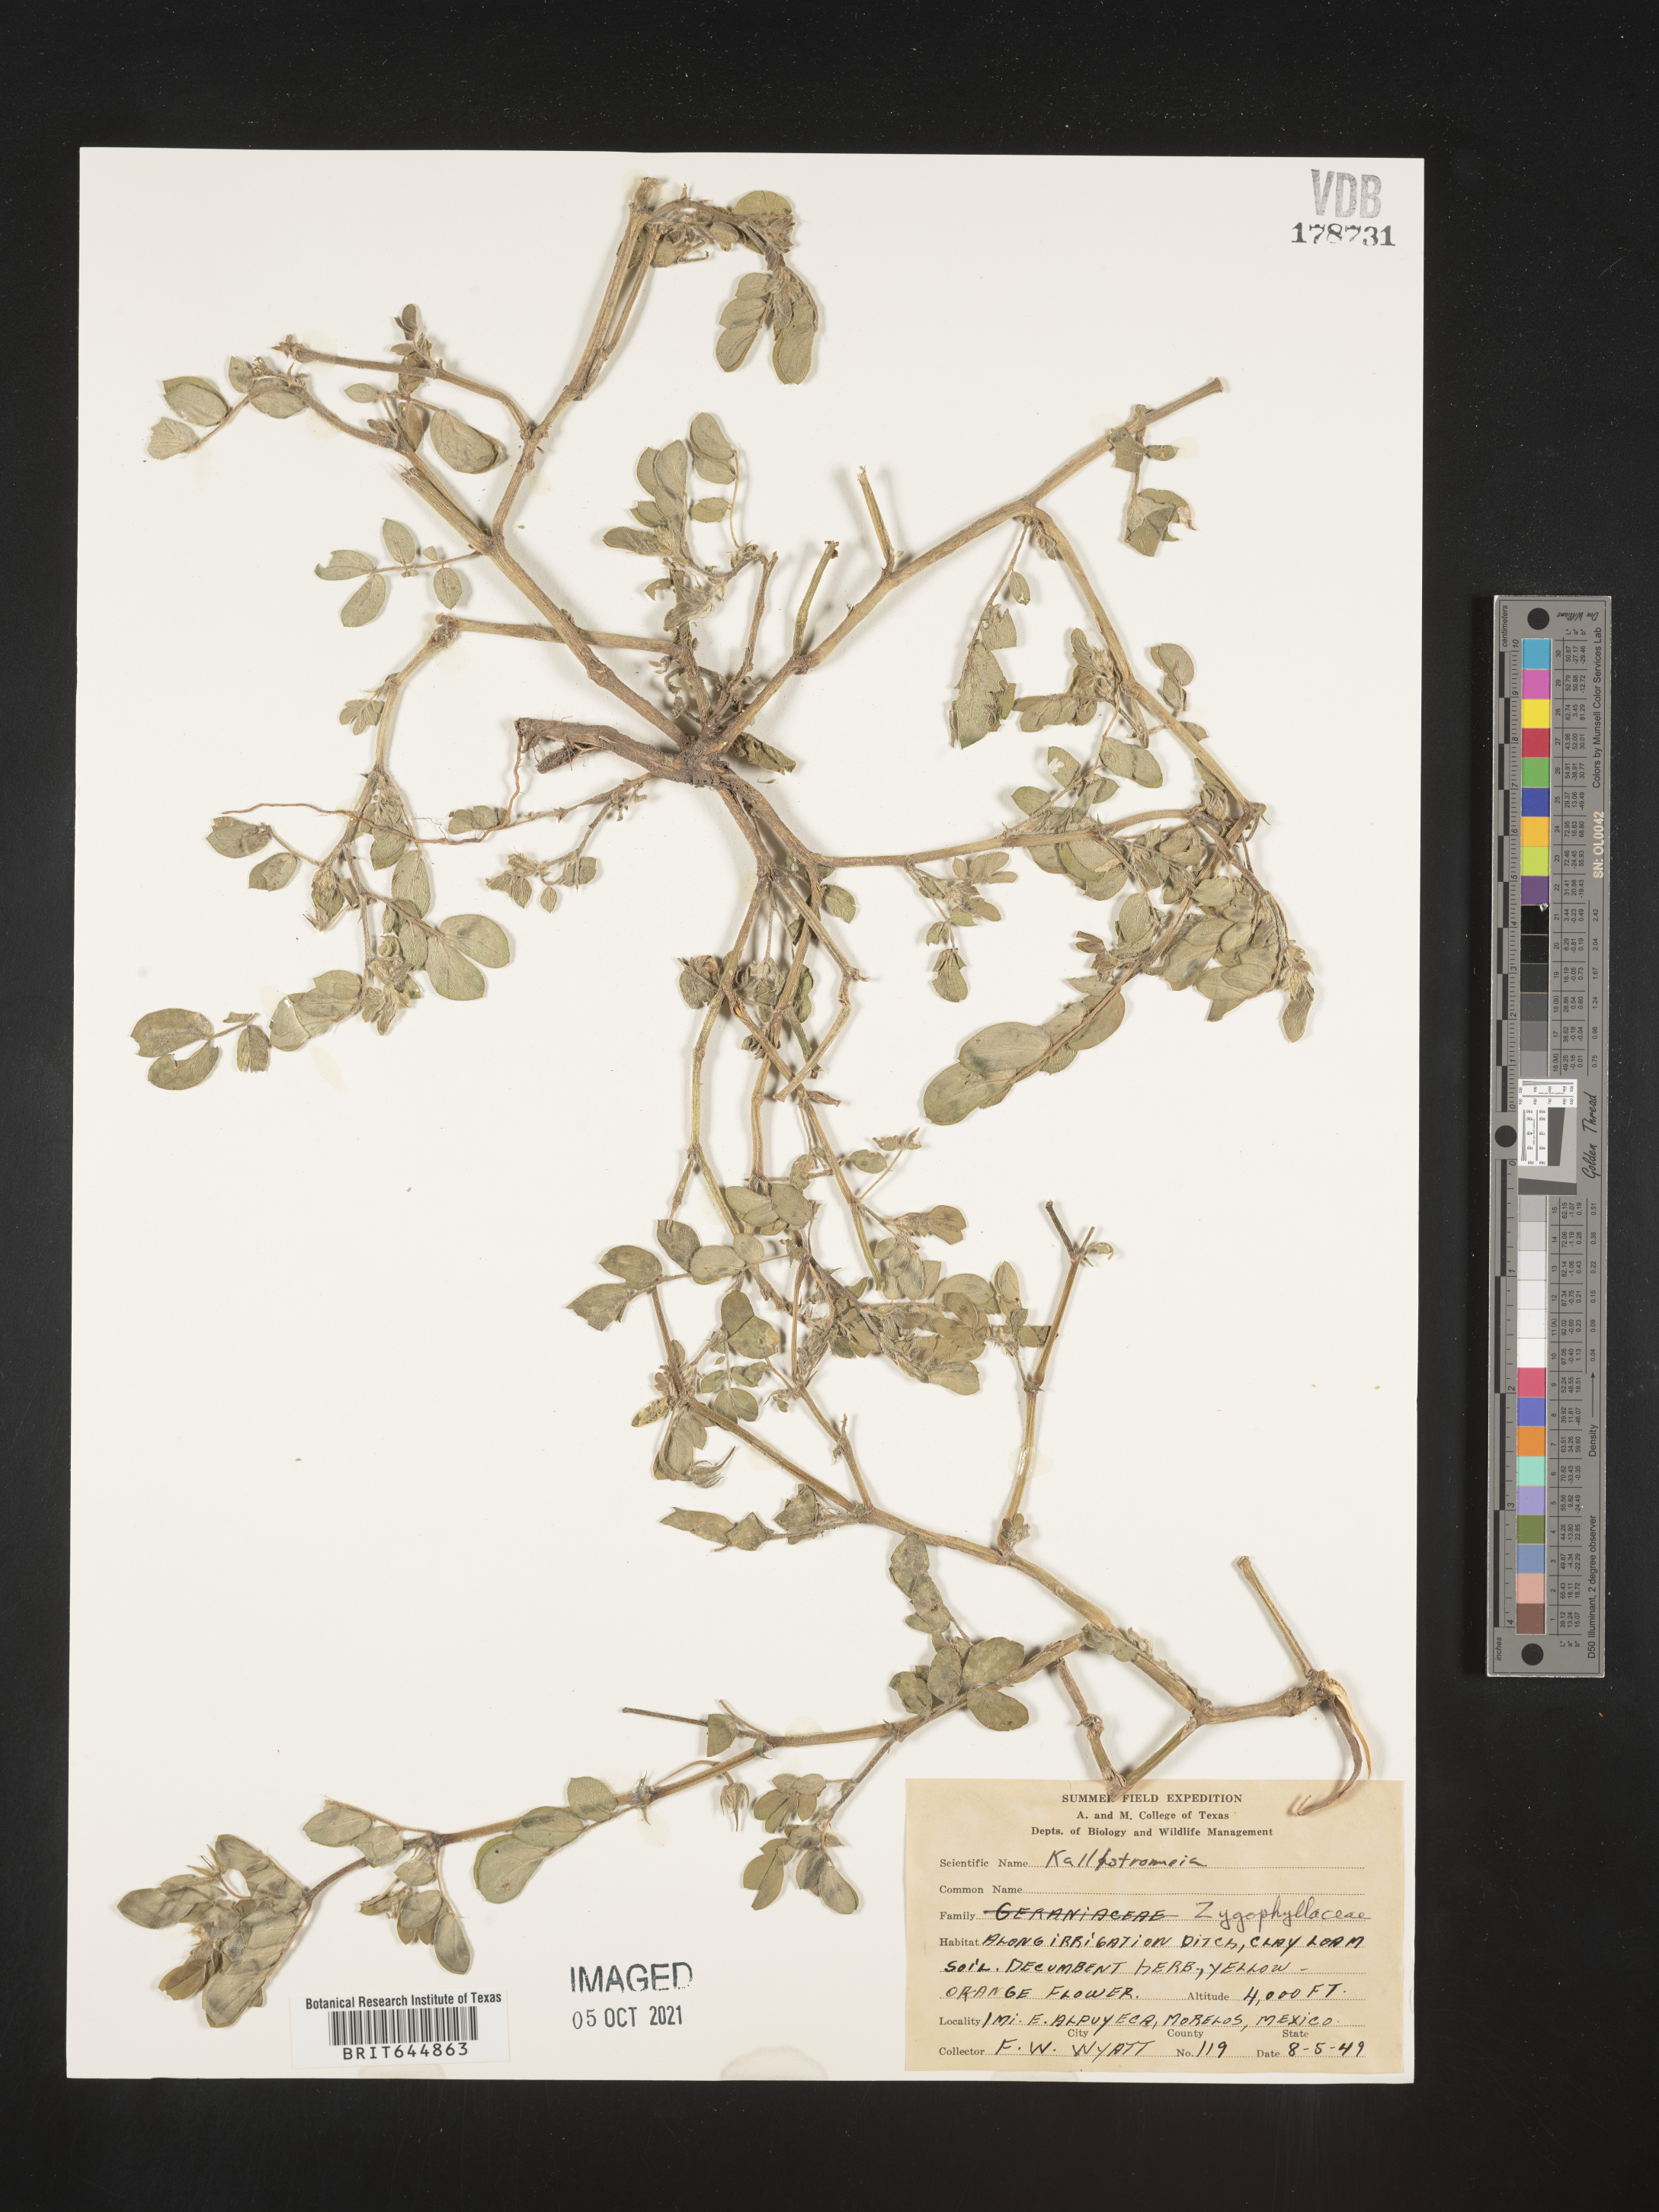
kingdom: Plantae
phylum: Tracheophyta
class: Magnoliopsida
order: Zygophyllales
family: Zygophyllaceae
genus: Kallstroemia
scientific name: Kallstroemia
